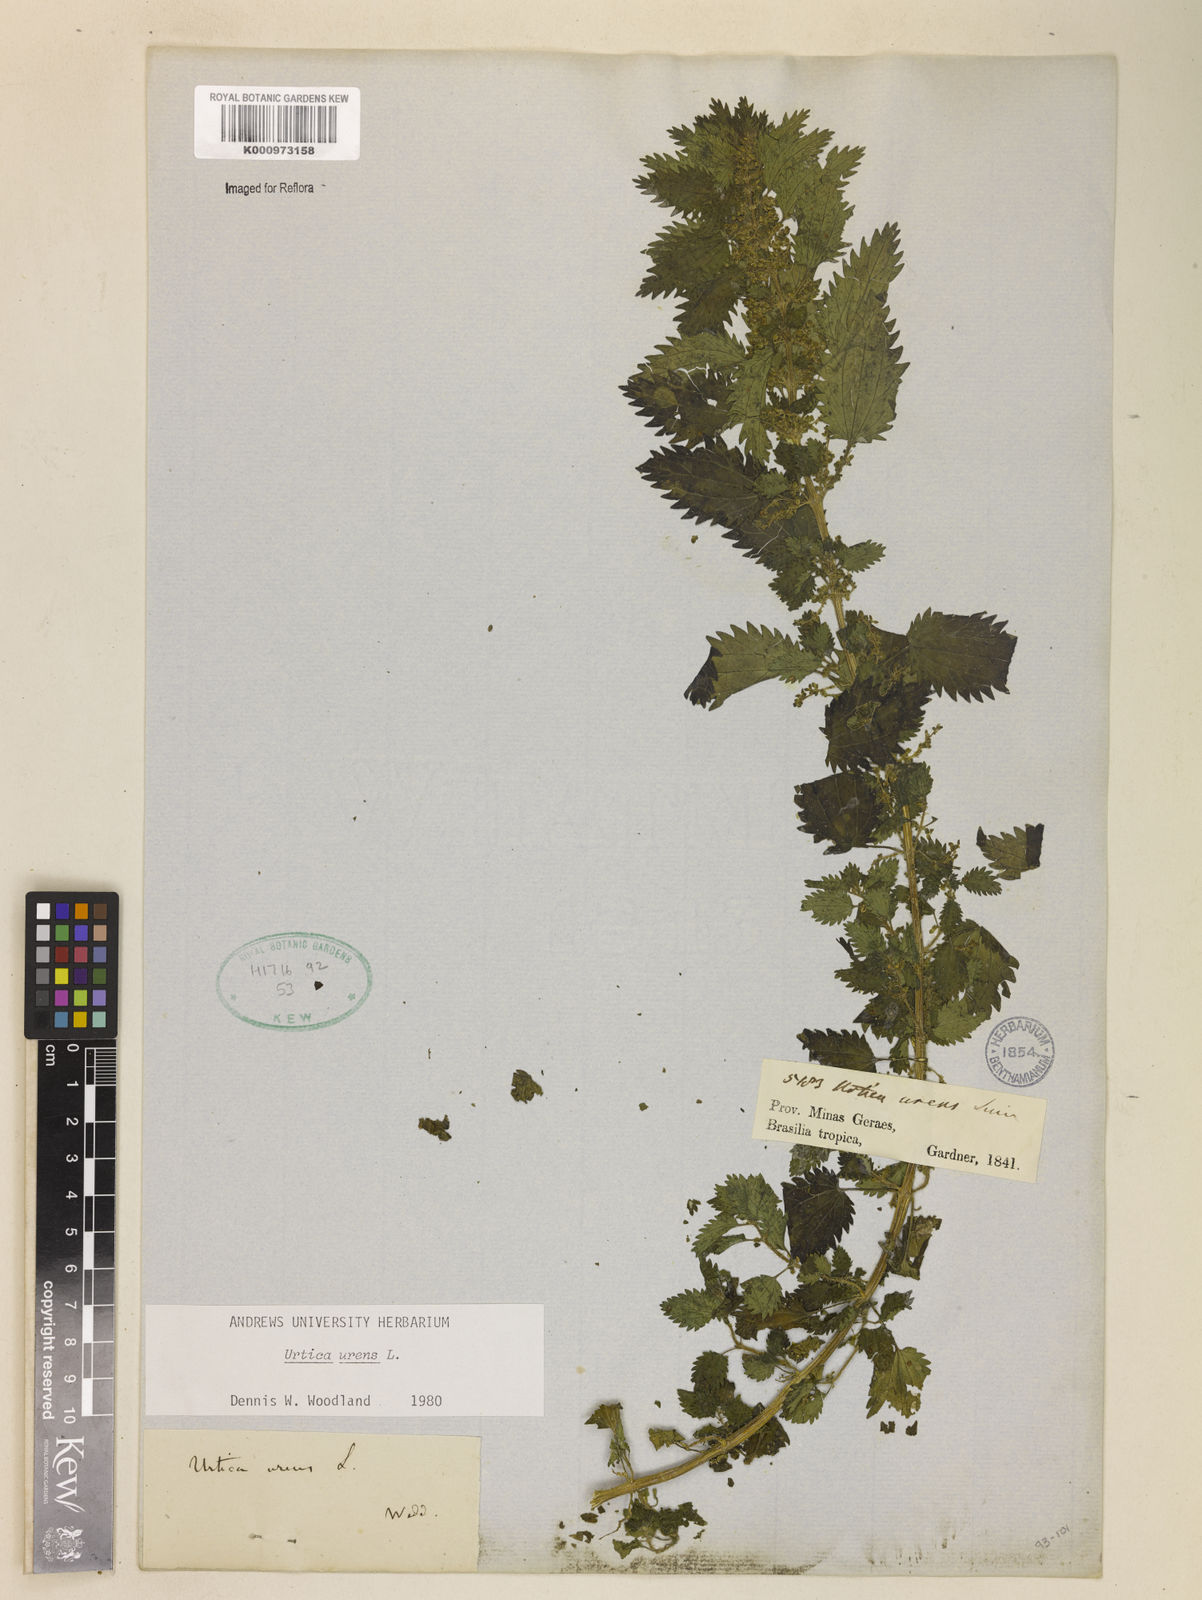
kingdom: Plantae
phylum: Tracheophyta
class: Magnoliopsida
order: Rosales
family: Urticaceae
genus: Urtica
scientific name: Urtica urens
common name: Dwarf nettle
